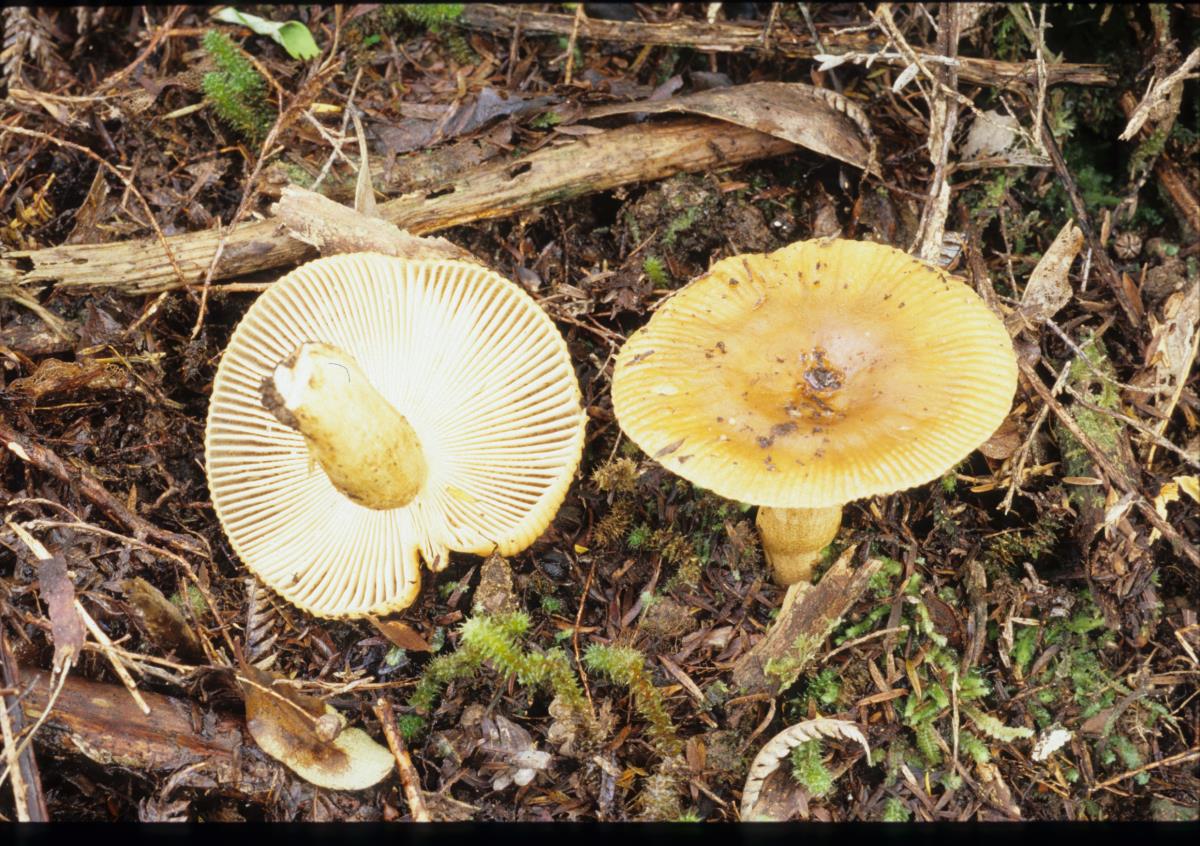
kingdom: Fungi
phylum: Basidiomycota
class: Agaricomycetes
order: Russulales
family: Russulaceae
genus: Russula
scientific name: Russula
